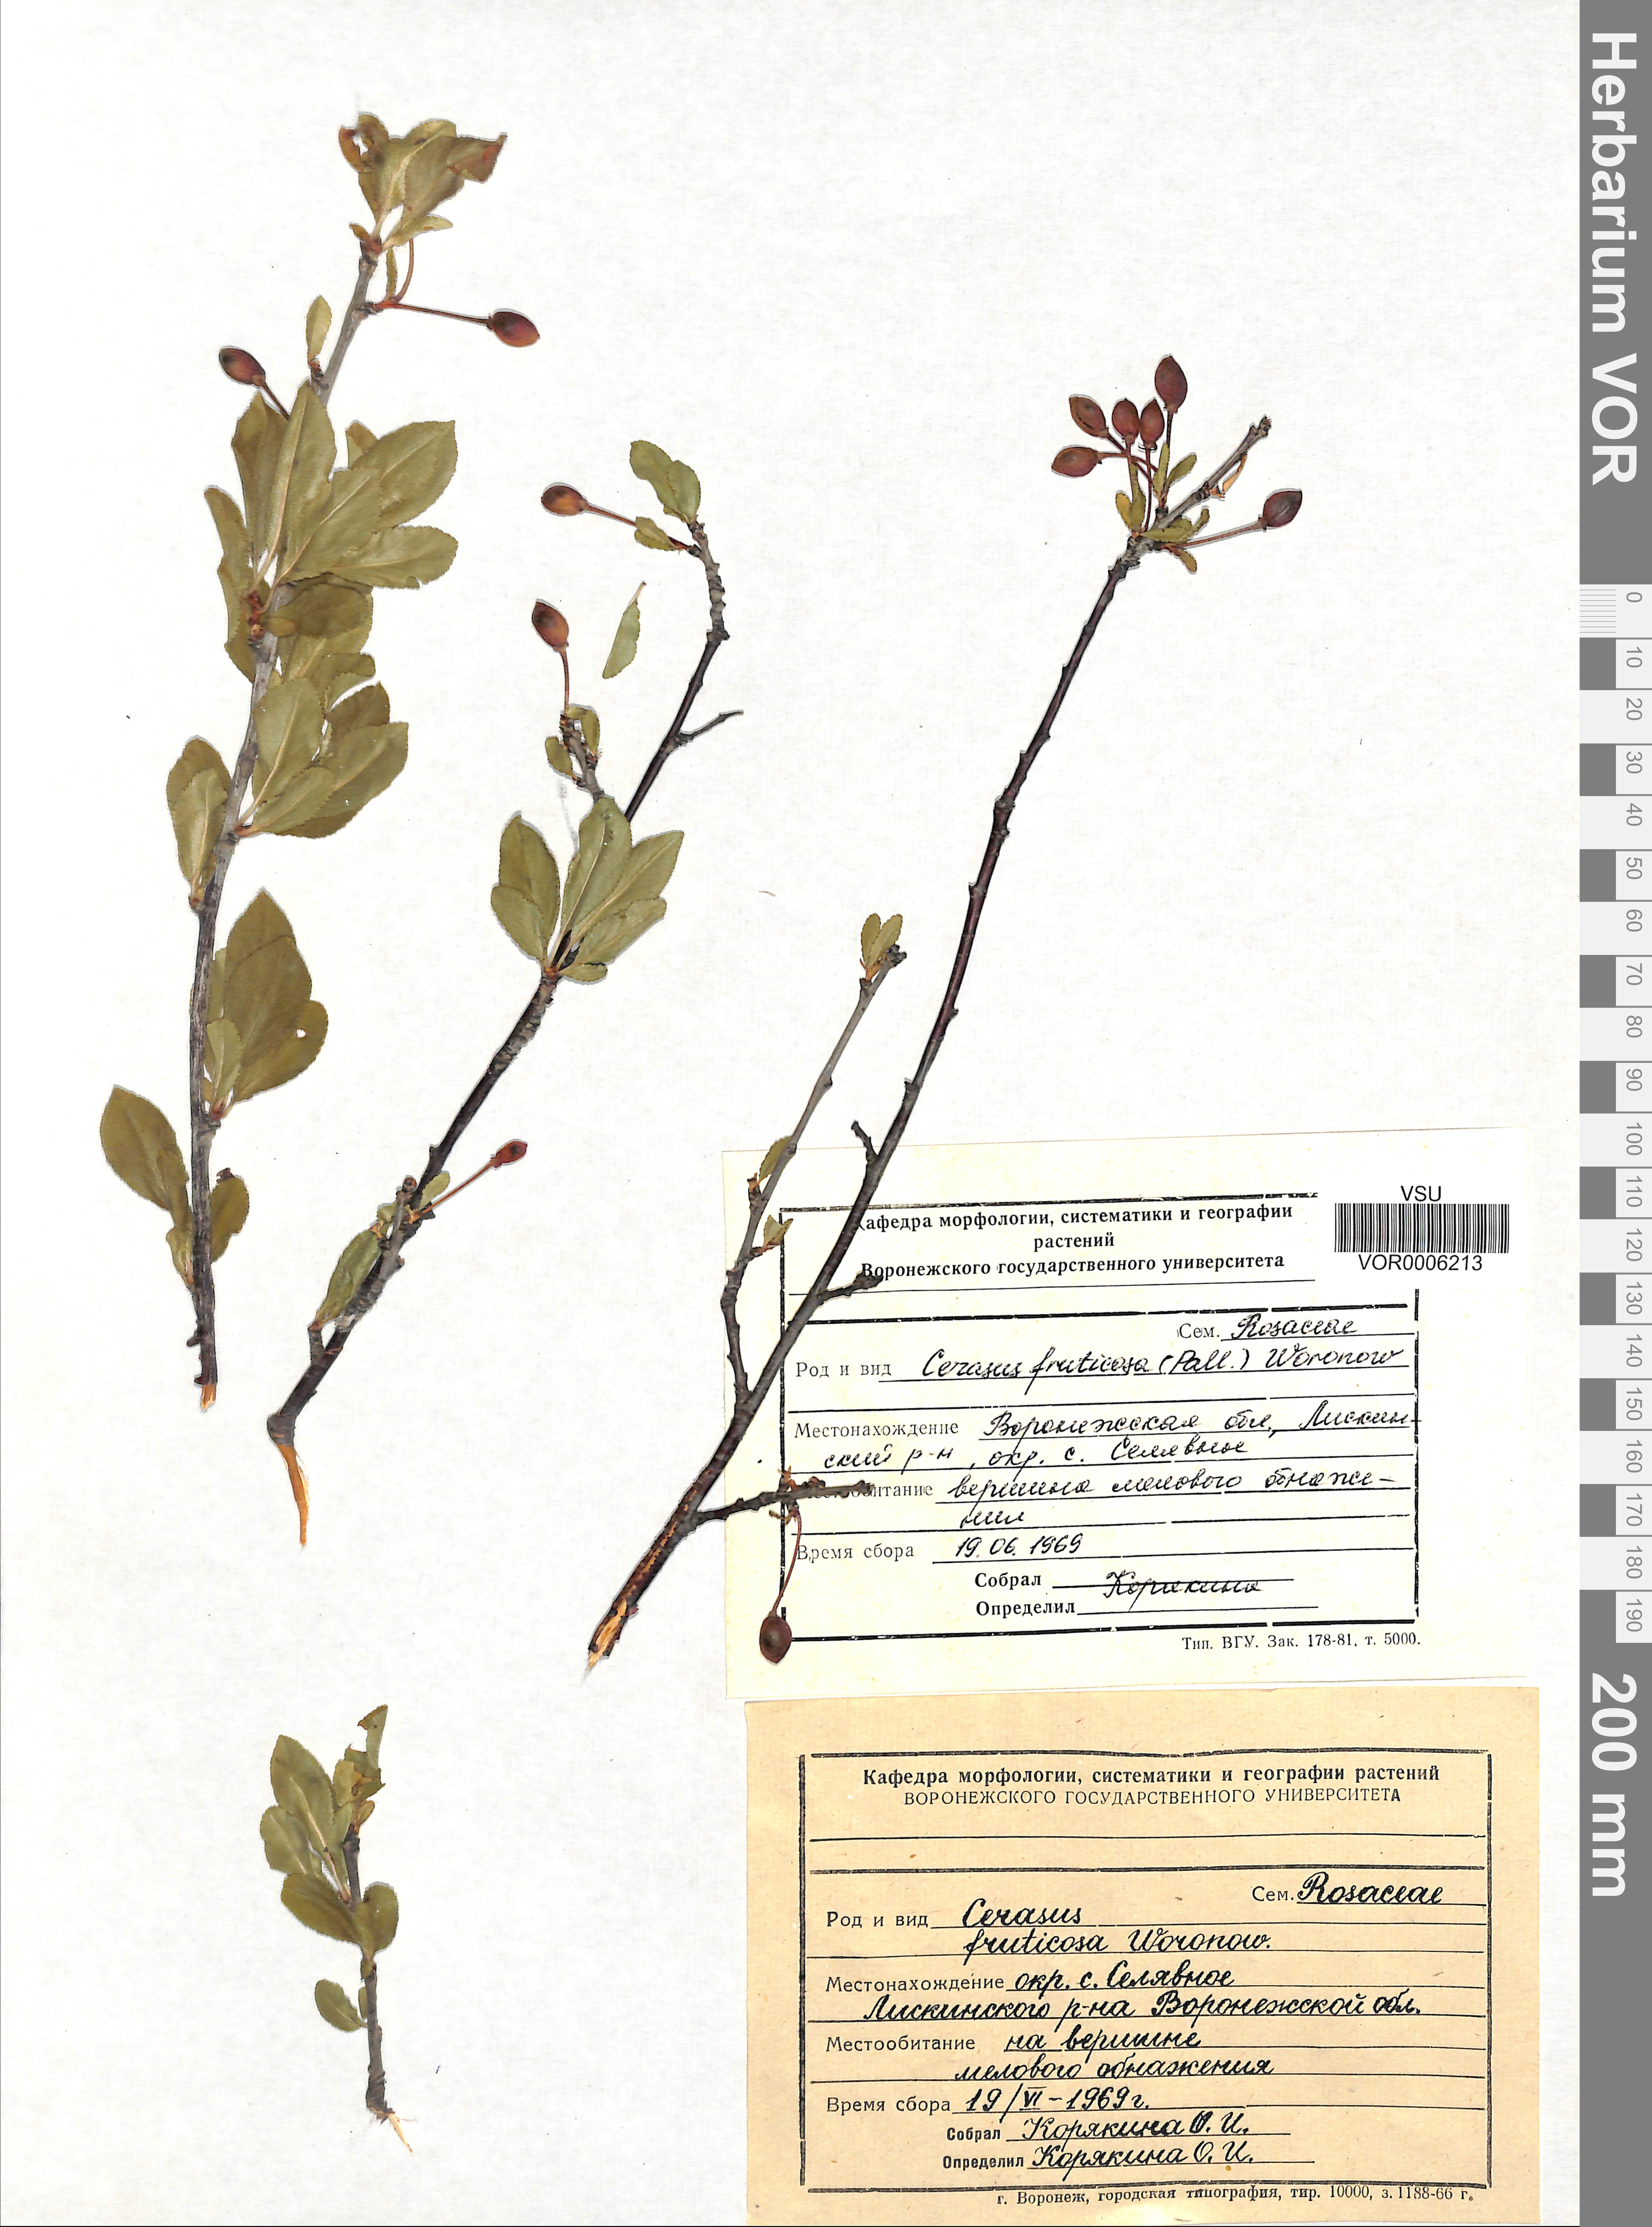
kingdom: Plantae
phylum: Tracheophyta
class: Magnoliopsida
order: Rosales
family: Rosaceae
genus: Prunus
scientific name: Prunus fruticosa
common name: European dwarf cherry
